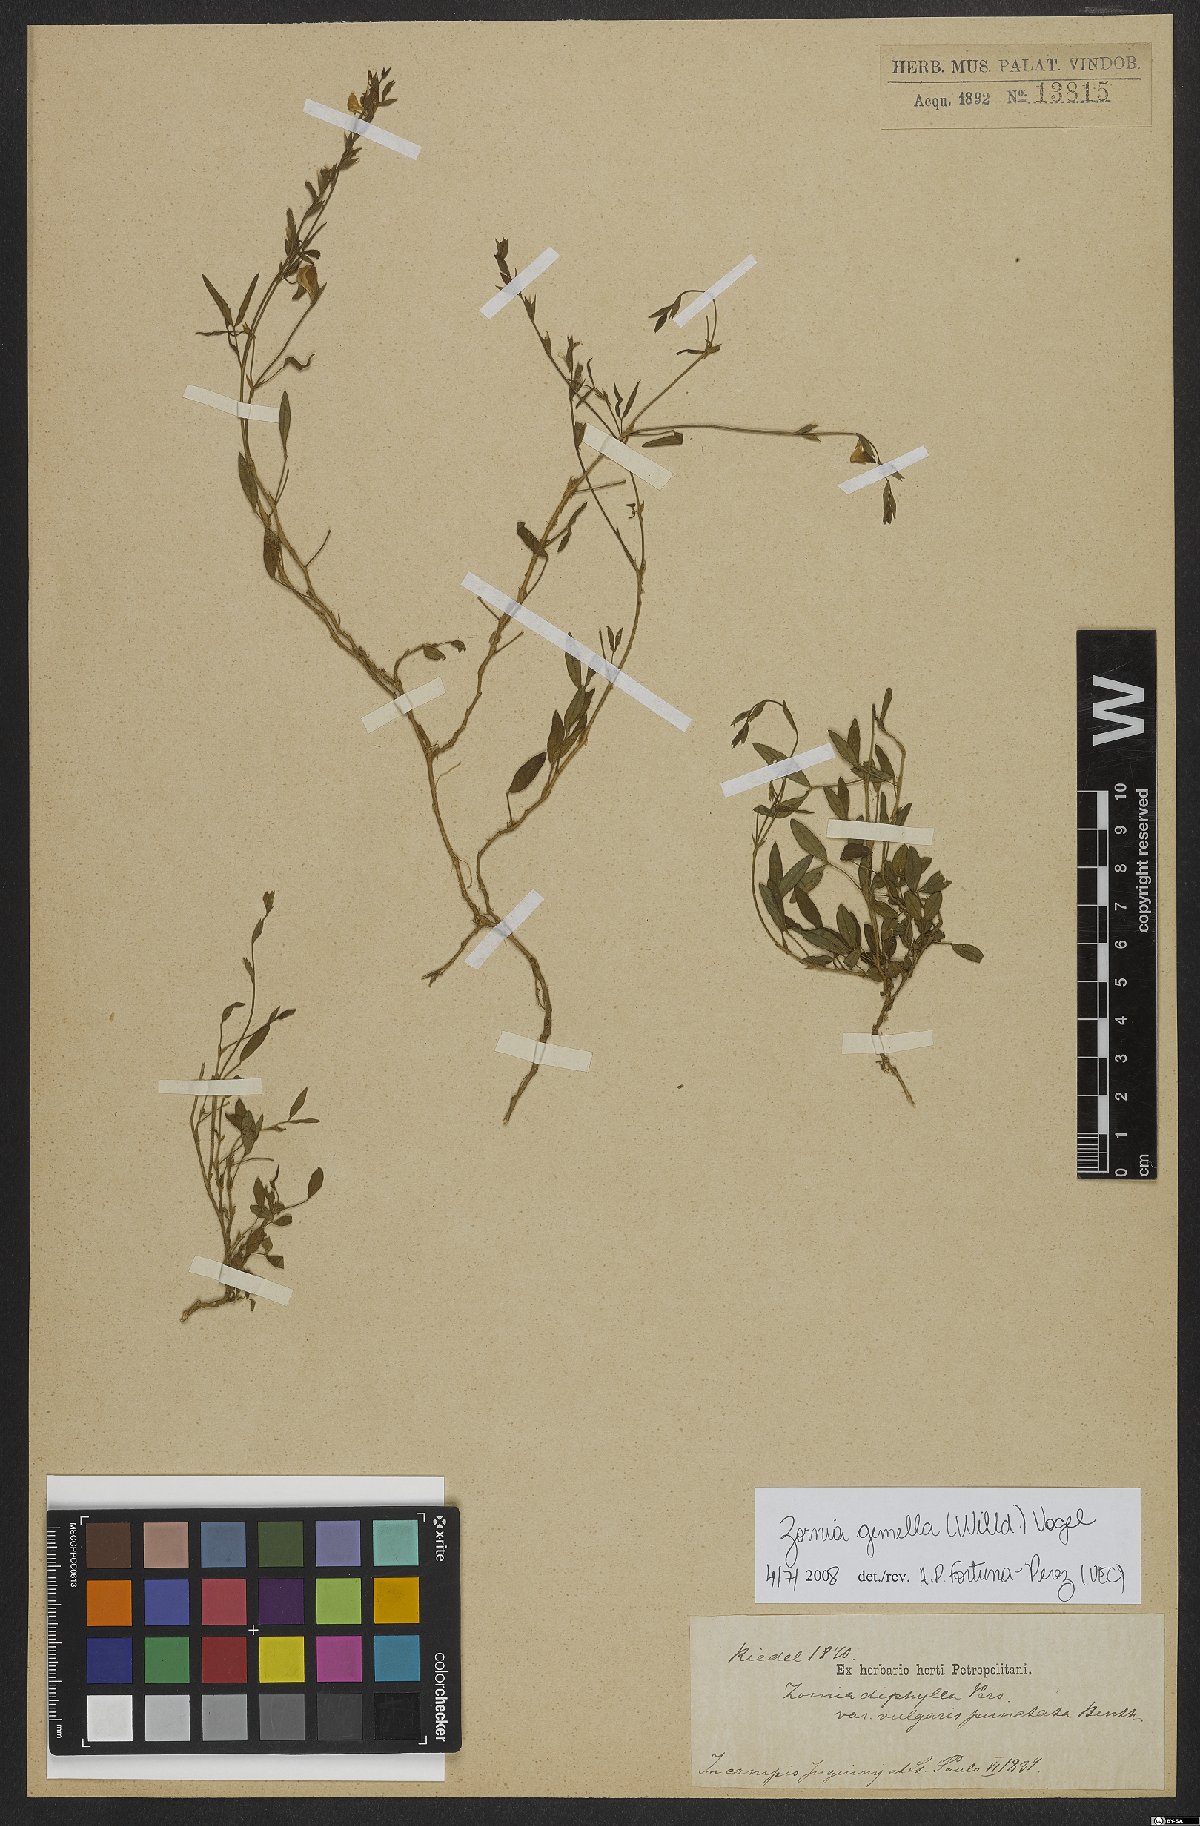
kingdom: Plantae
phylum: Tracheophyta
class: Magnoliopsida
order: Fabales
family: Fabaceae
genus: Zornia
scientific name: Zornia latifolia
